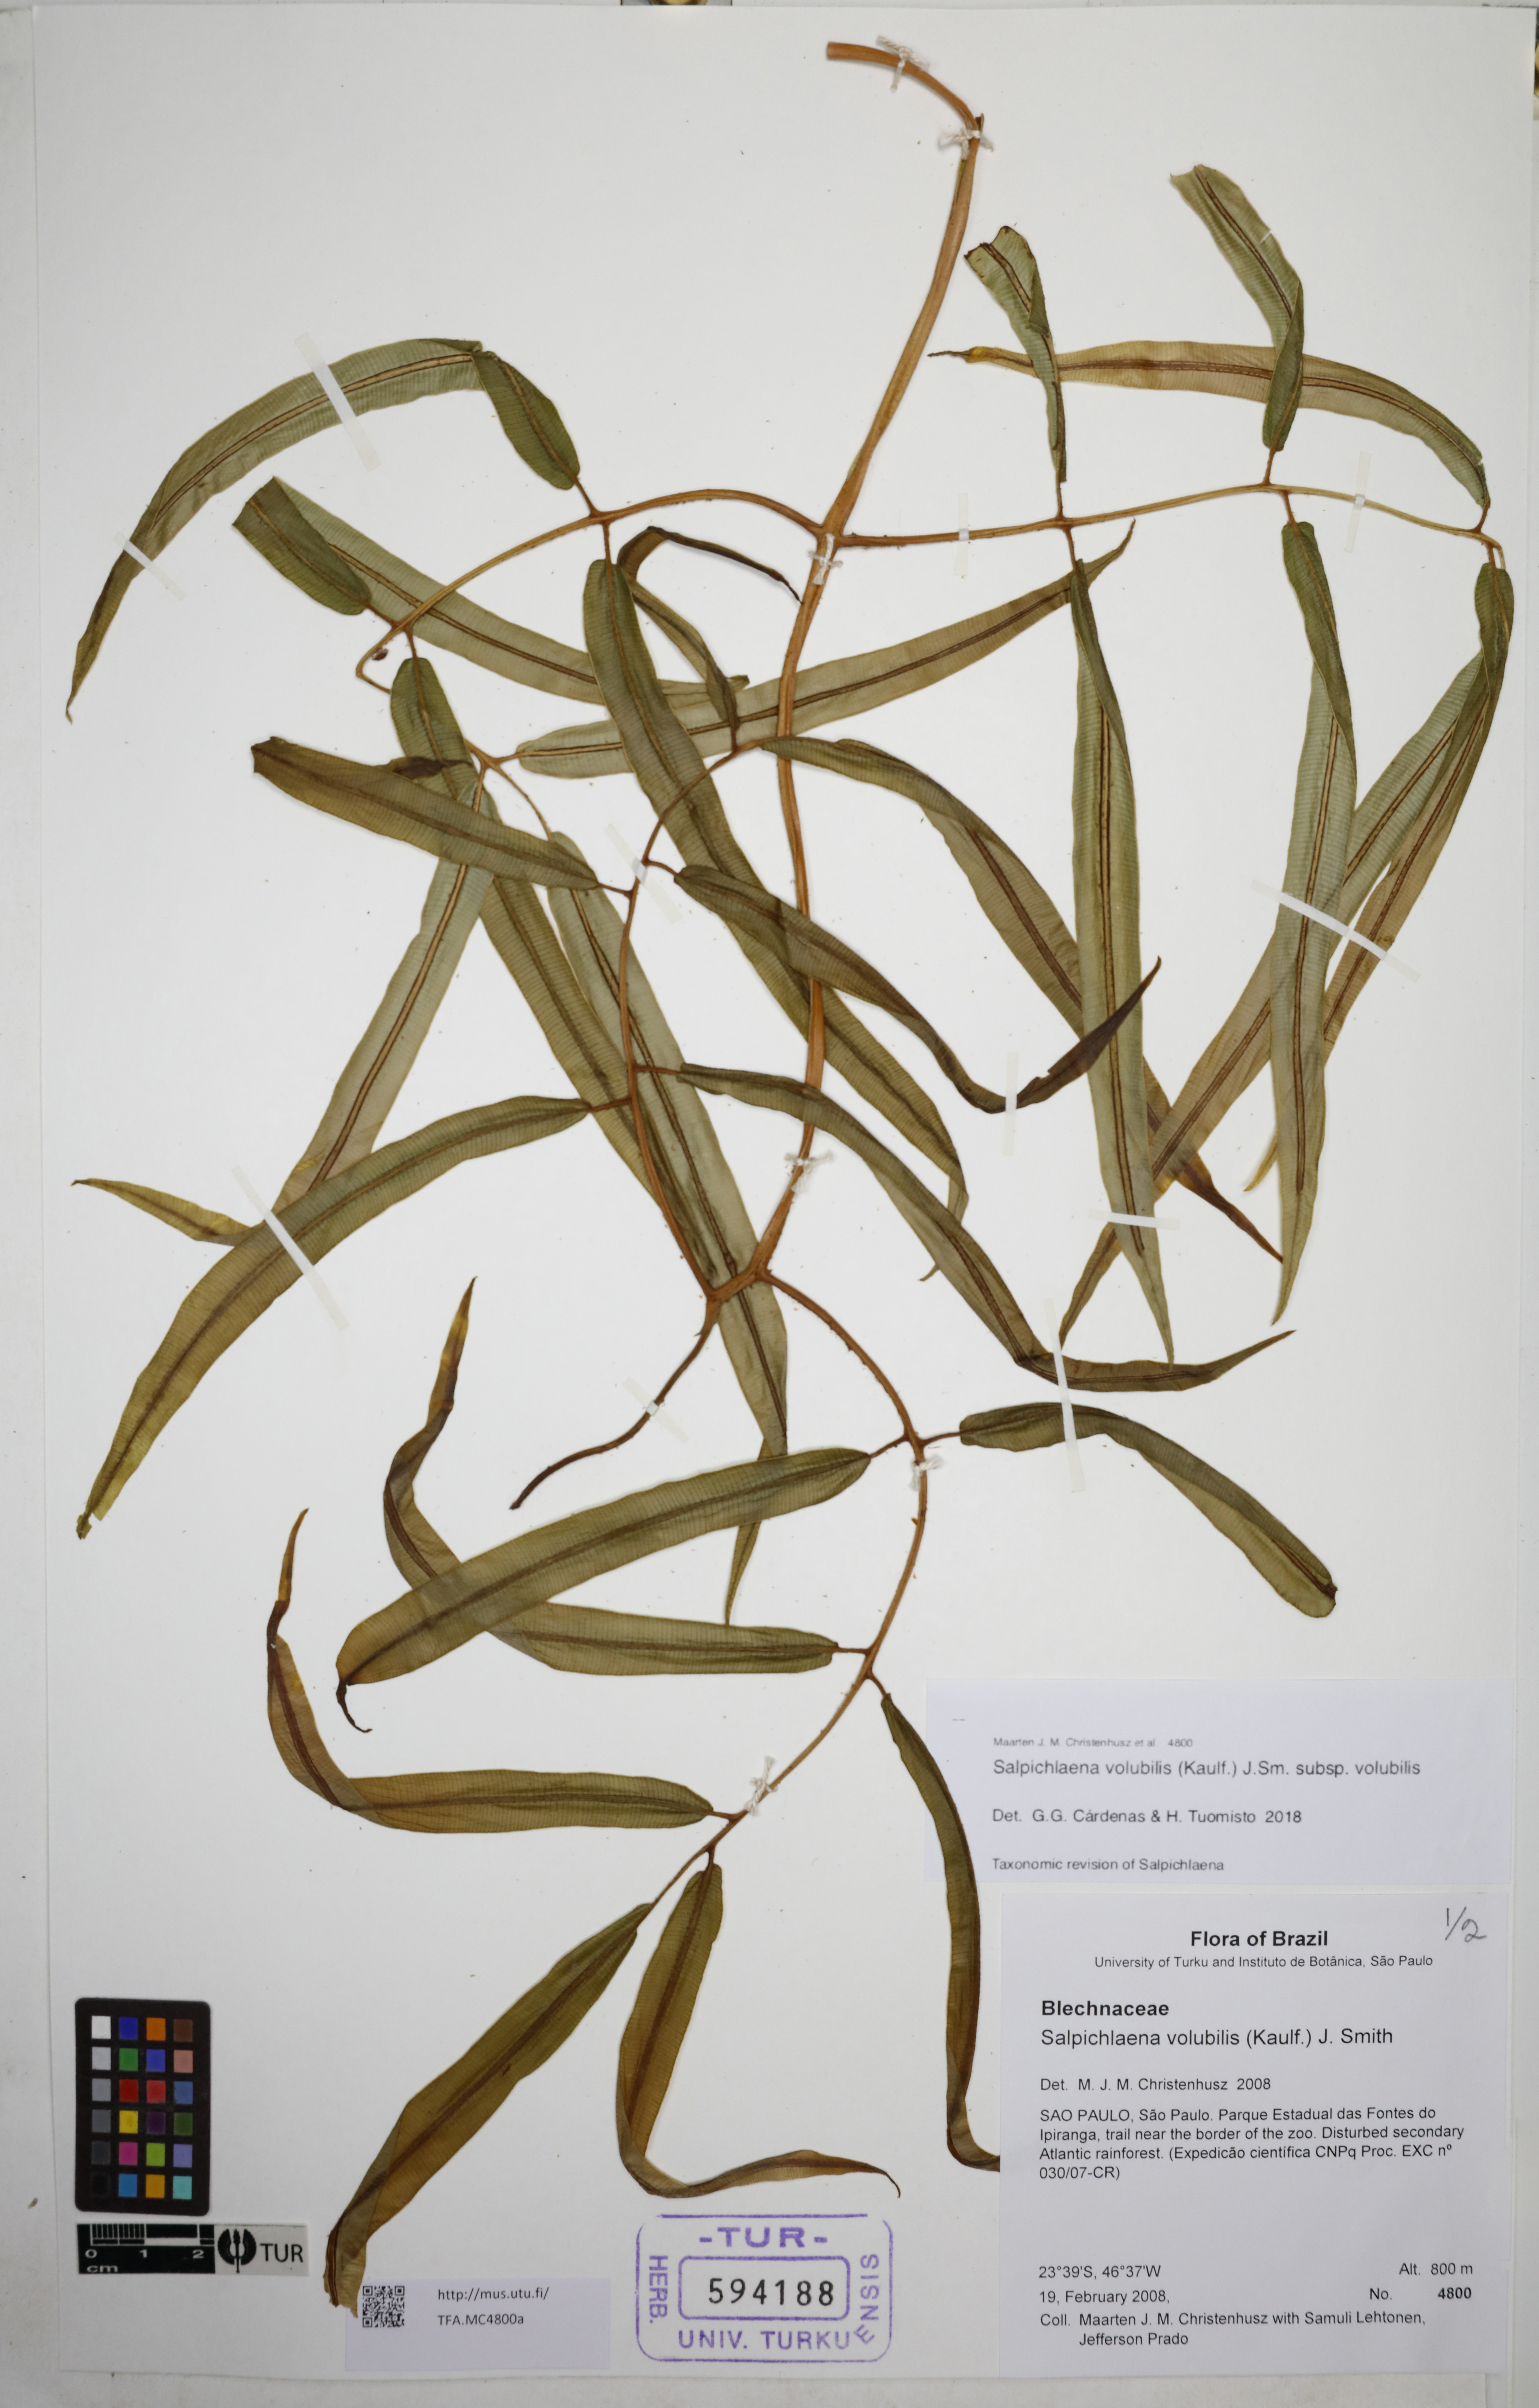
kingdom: Plantae
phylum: Tracheophyta
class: Polypodiopsida
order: Polypodiales
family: Blechnaceae
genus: Salpichlaena
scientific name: Salpichlaena volubilis
